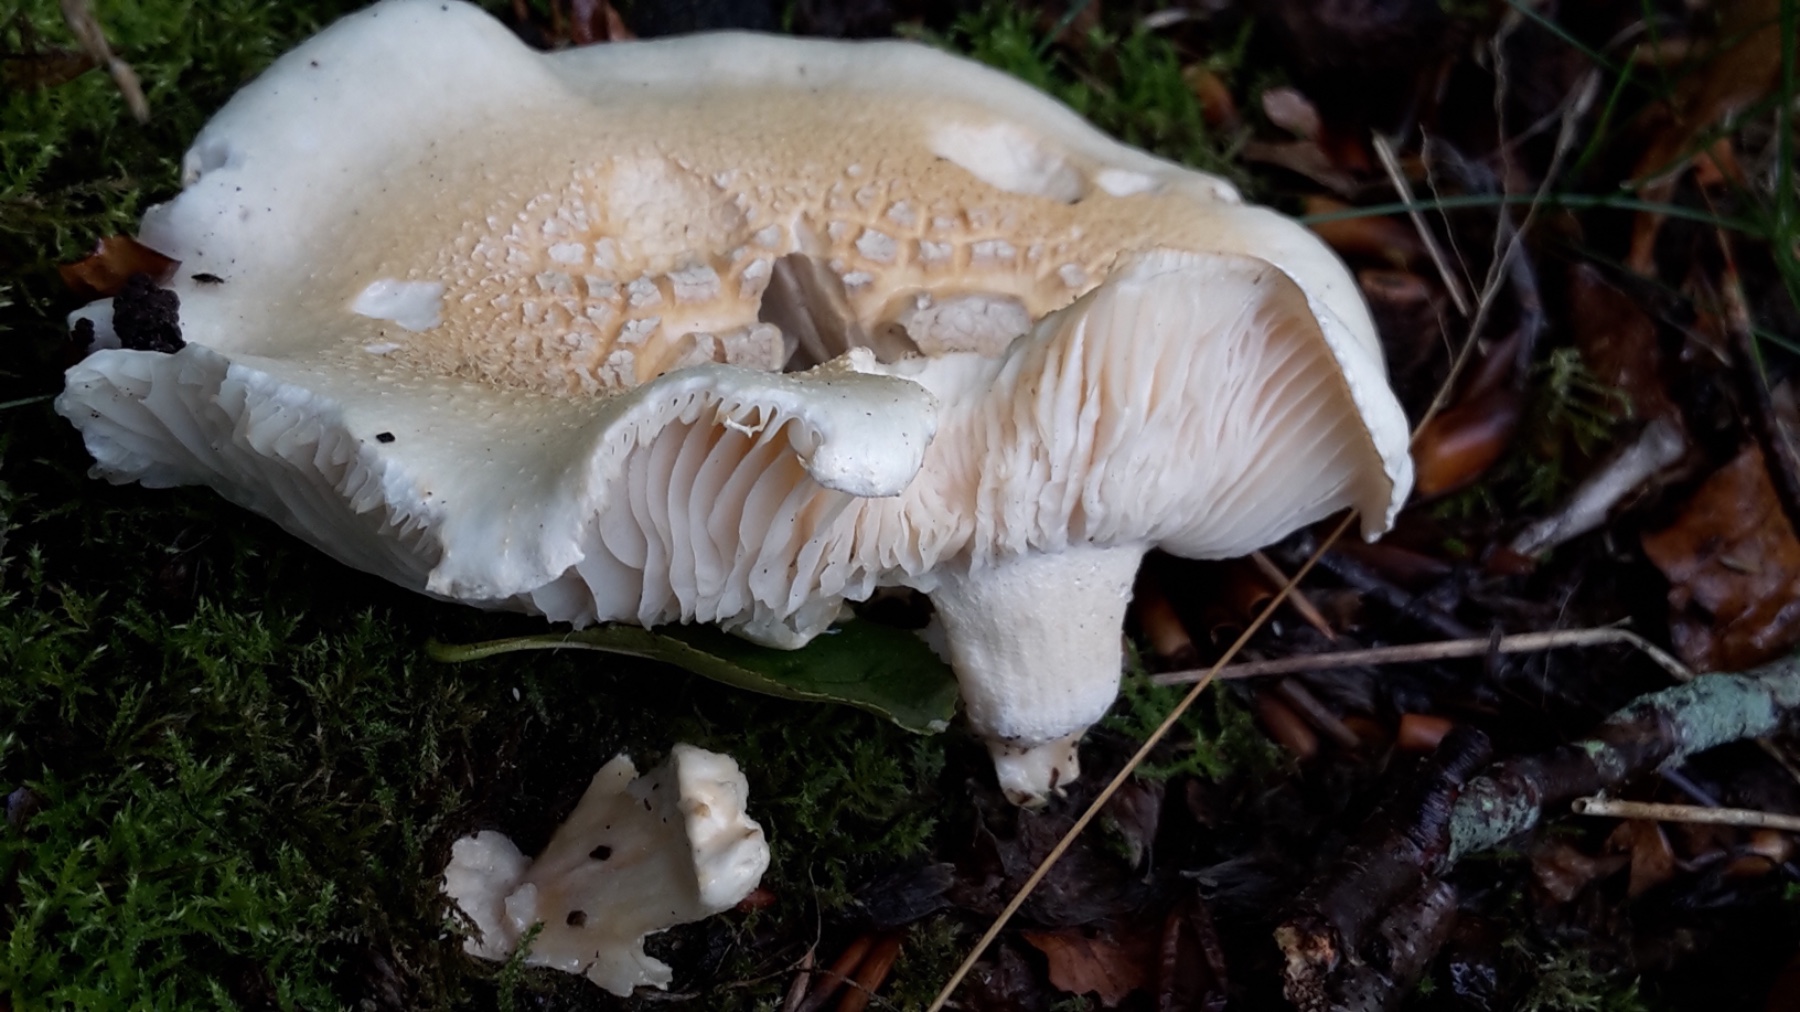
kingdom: Fungi
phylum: Basidiomycota
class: Agaricomycetes
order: Agaricales
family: Hygrophoraceae
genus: Hygrophorus
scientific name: Hygrophorus penarius
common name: spiselig sneglehat
